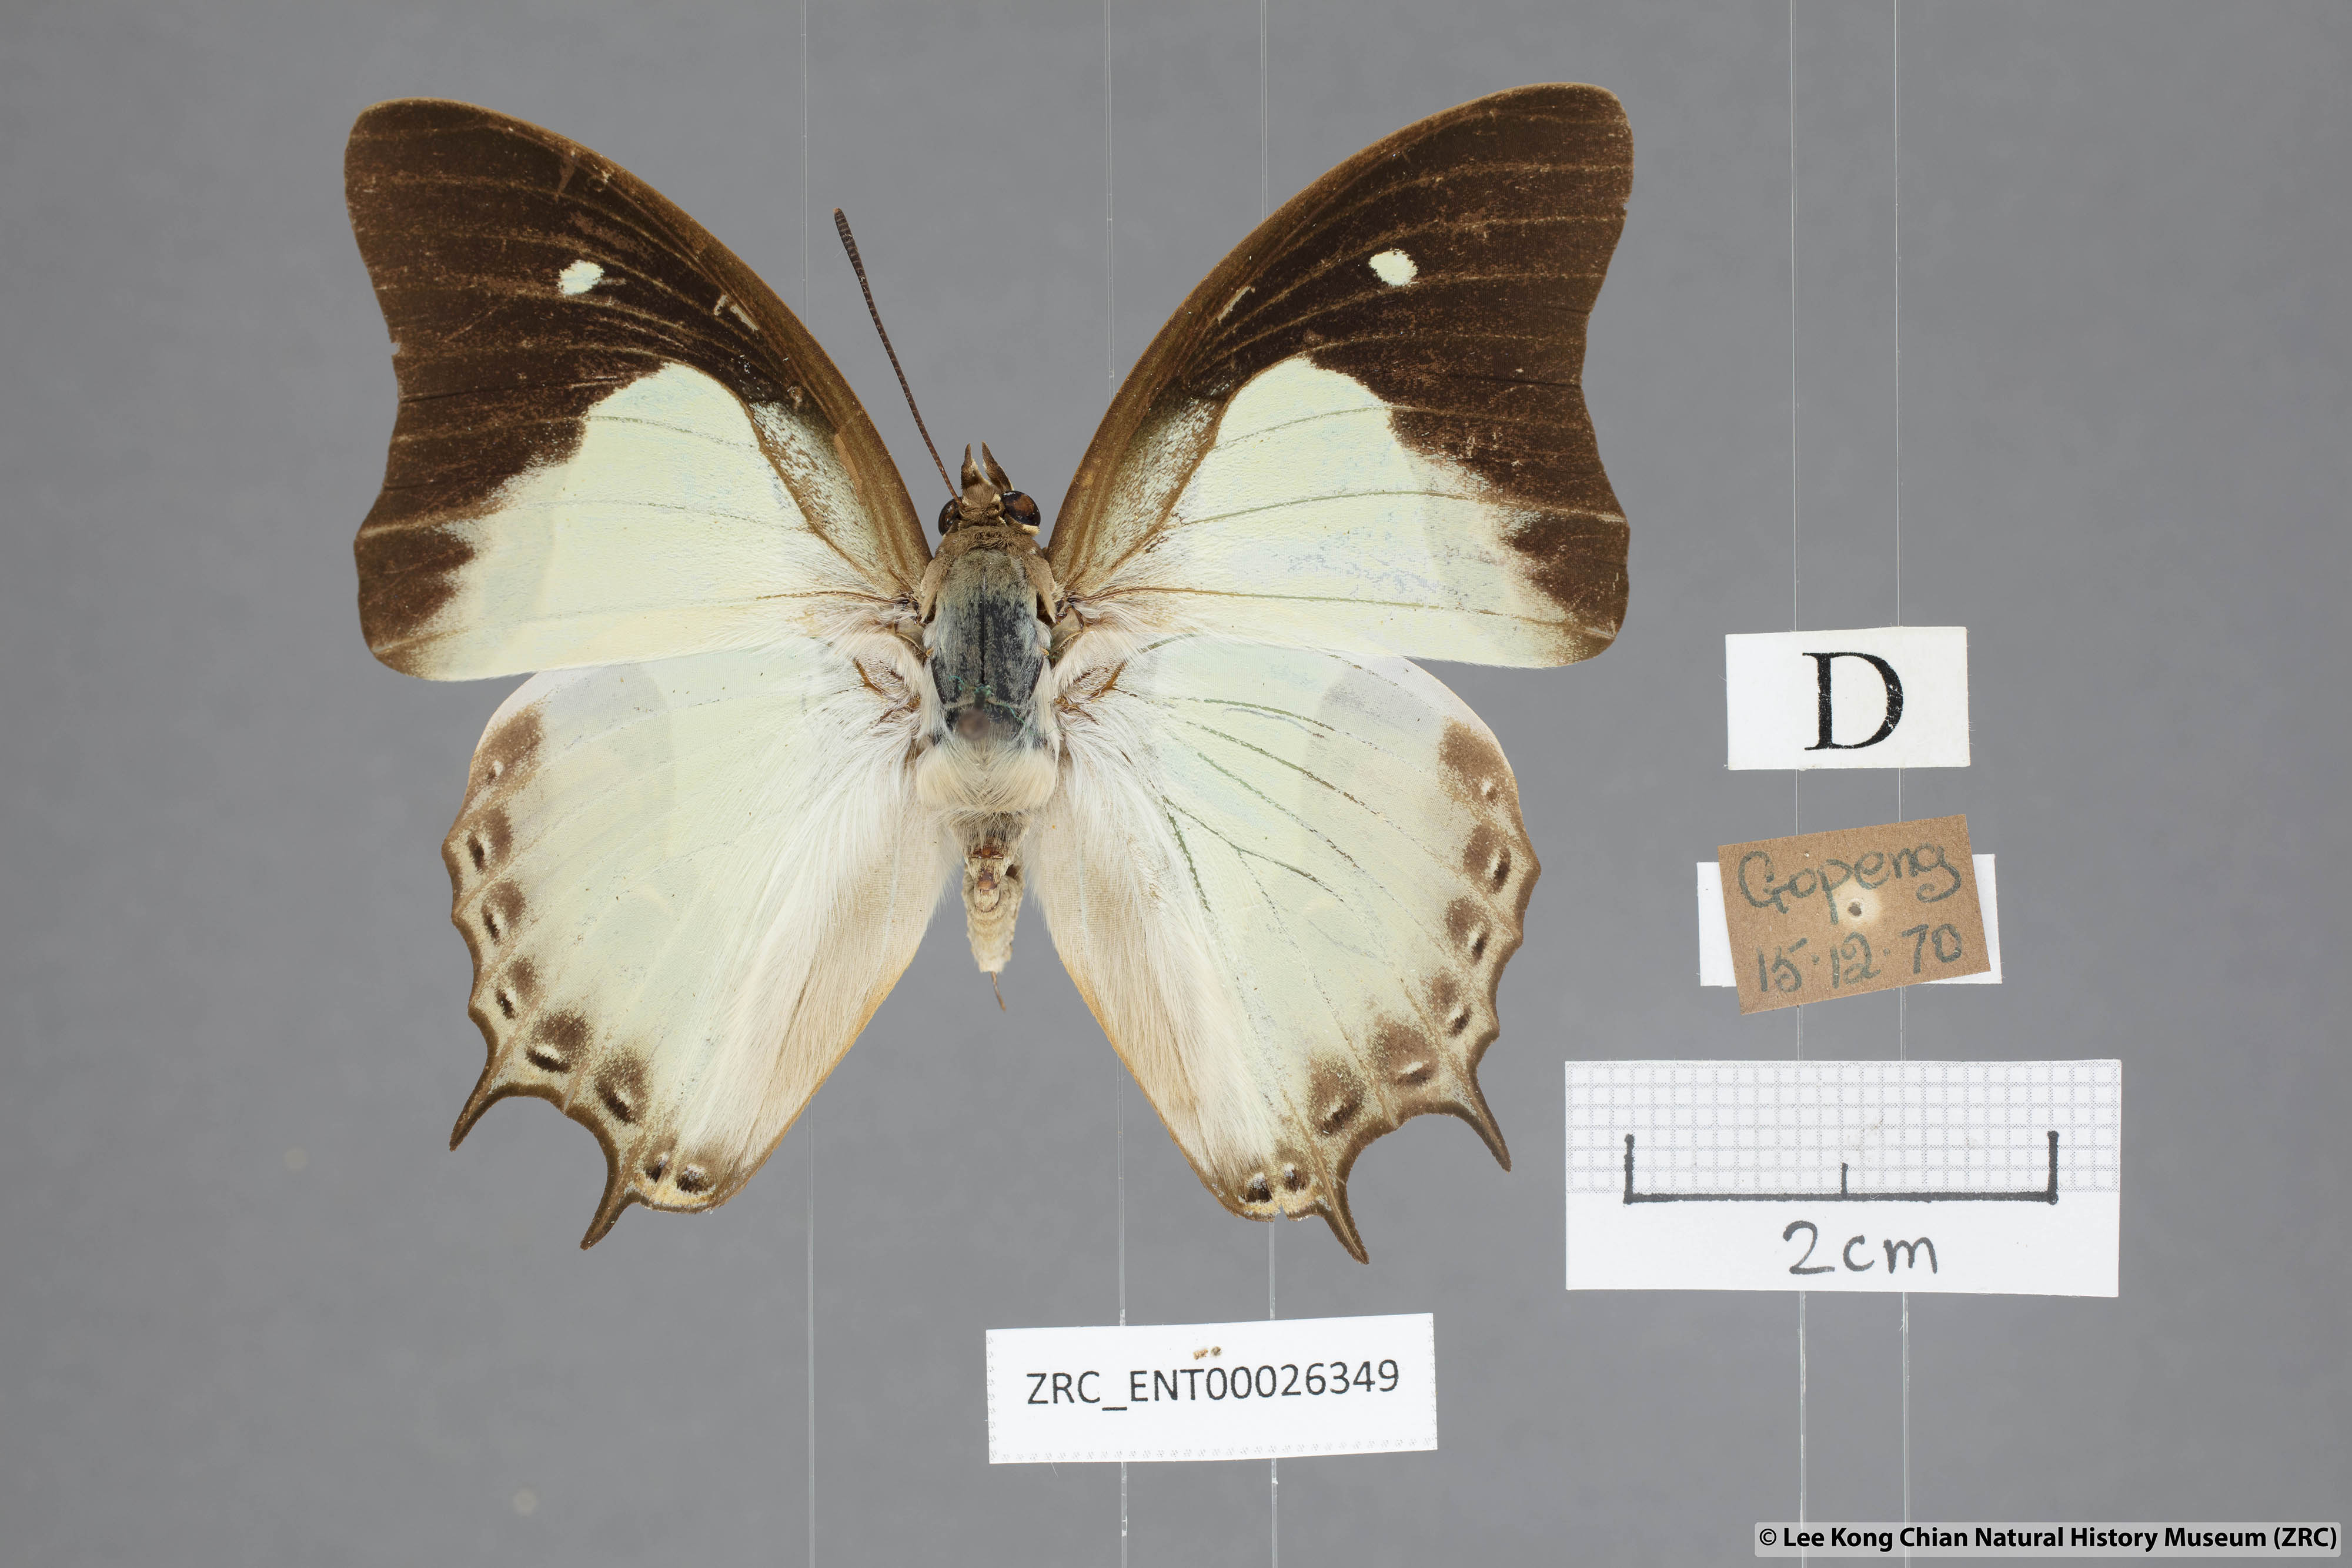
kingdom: Animalia
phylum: Arthropoda
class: Insecta
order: Lepidoptera
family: Nymphalidae
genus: Polyura
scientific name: Polyura hebe
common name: Plain nawab
